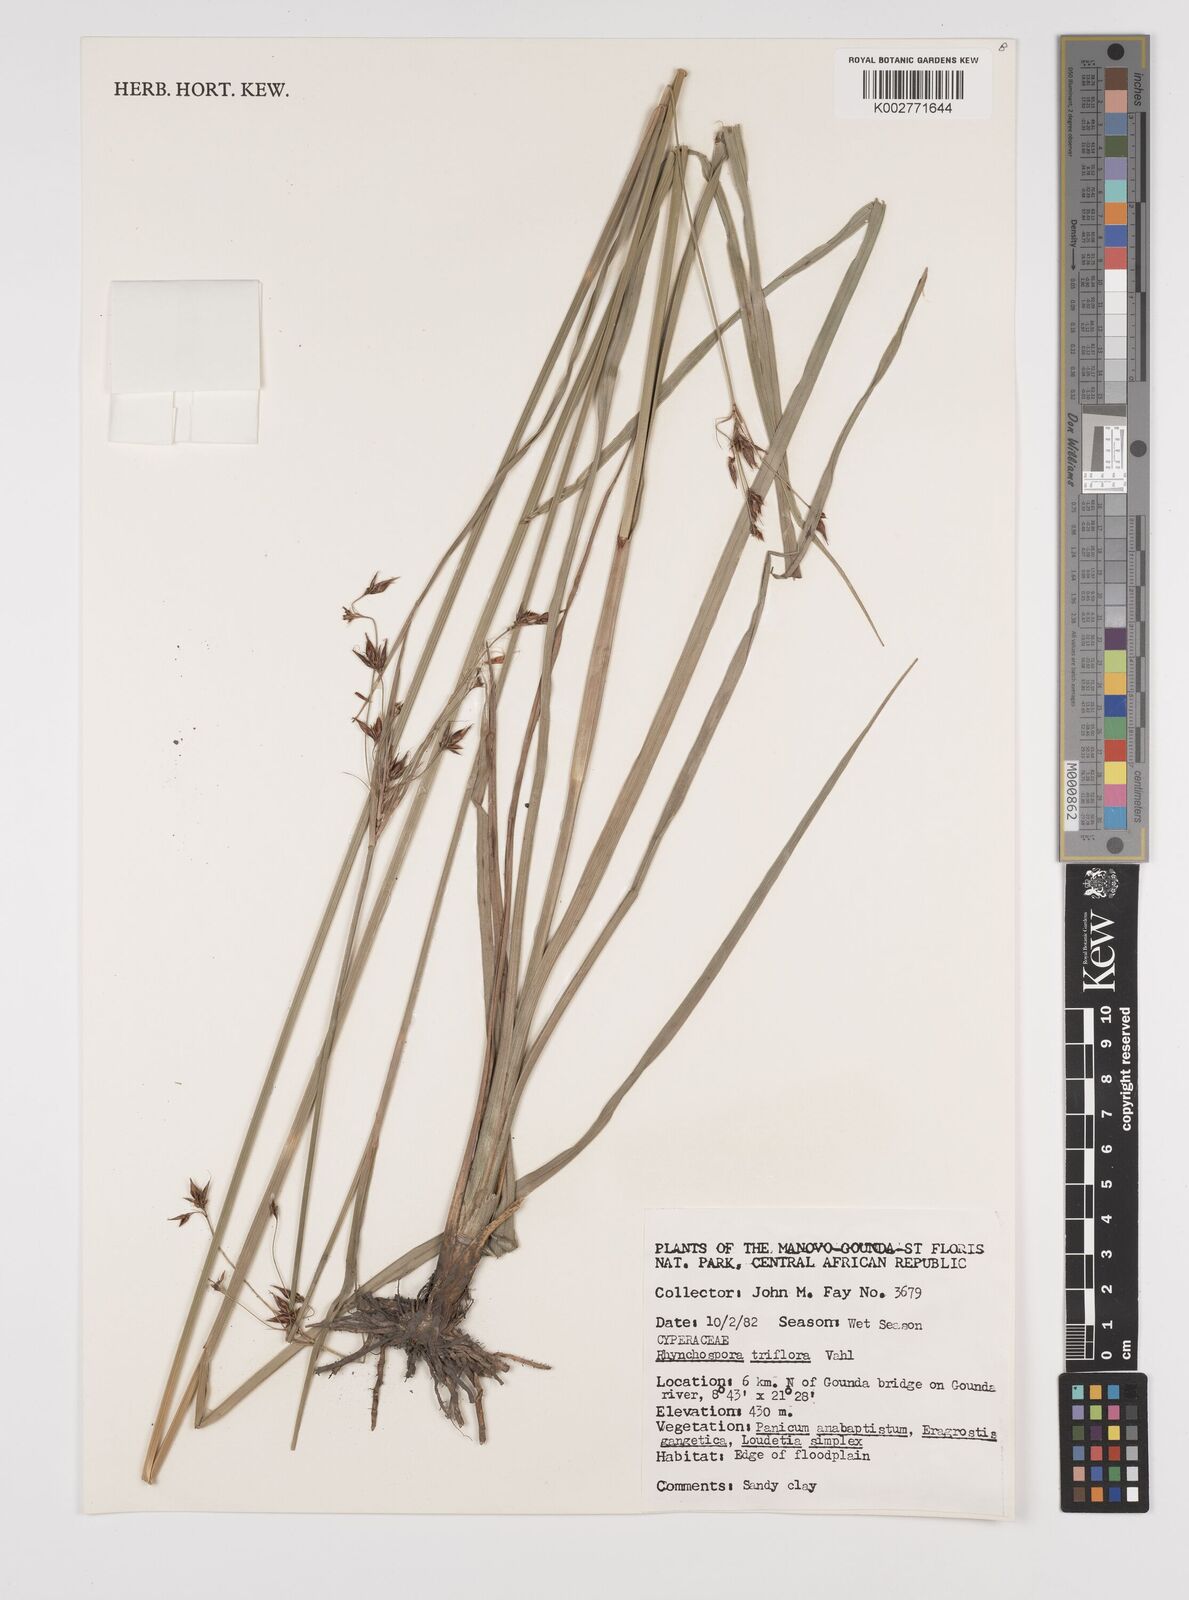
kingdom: Plantae
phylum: Tracheophyta
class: Liliopsida
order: Poales
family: Cyperaceae
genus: Rhynchospora
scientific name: Rhynchospora triflora
